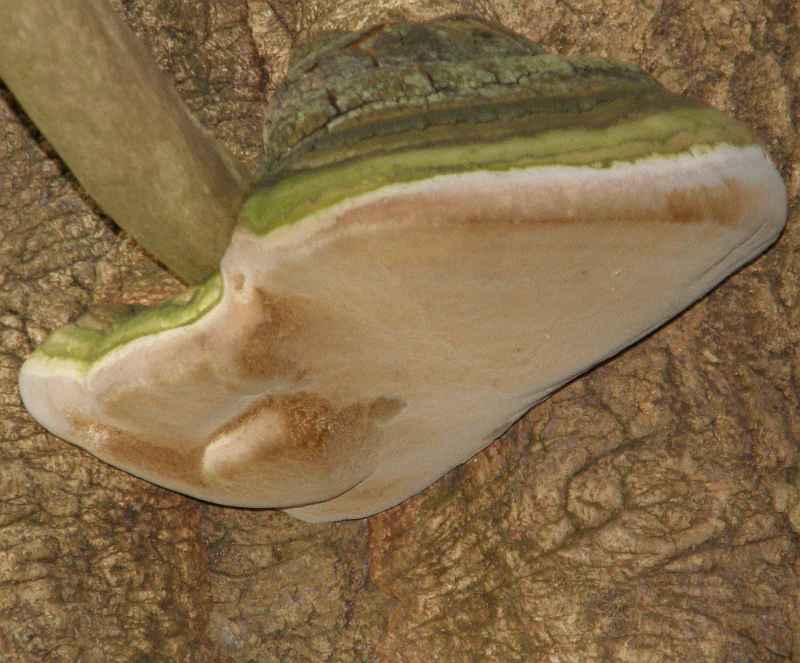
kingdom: Fungi
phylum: Basidiomycota
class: Agaricomycetes
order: Hymenochaetales
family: Hymenochaetaceae
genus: Phellinus
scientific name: Phellinus populicola
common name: poppel-ildporesvamp
